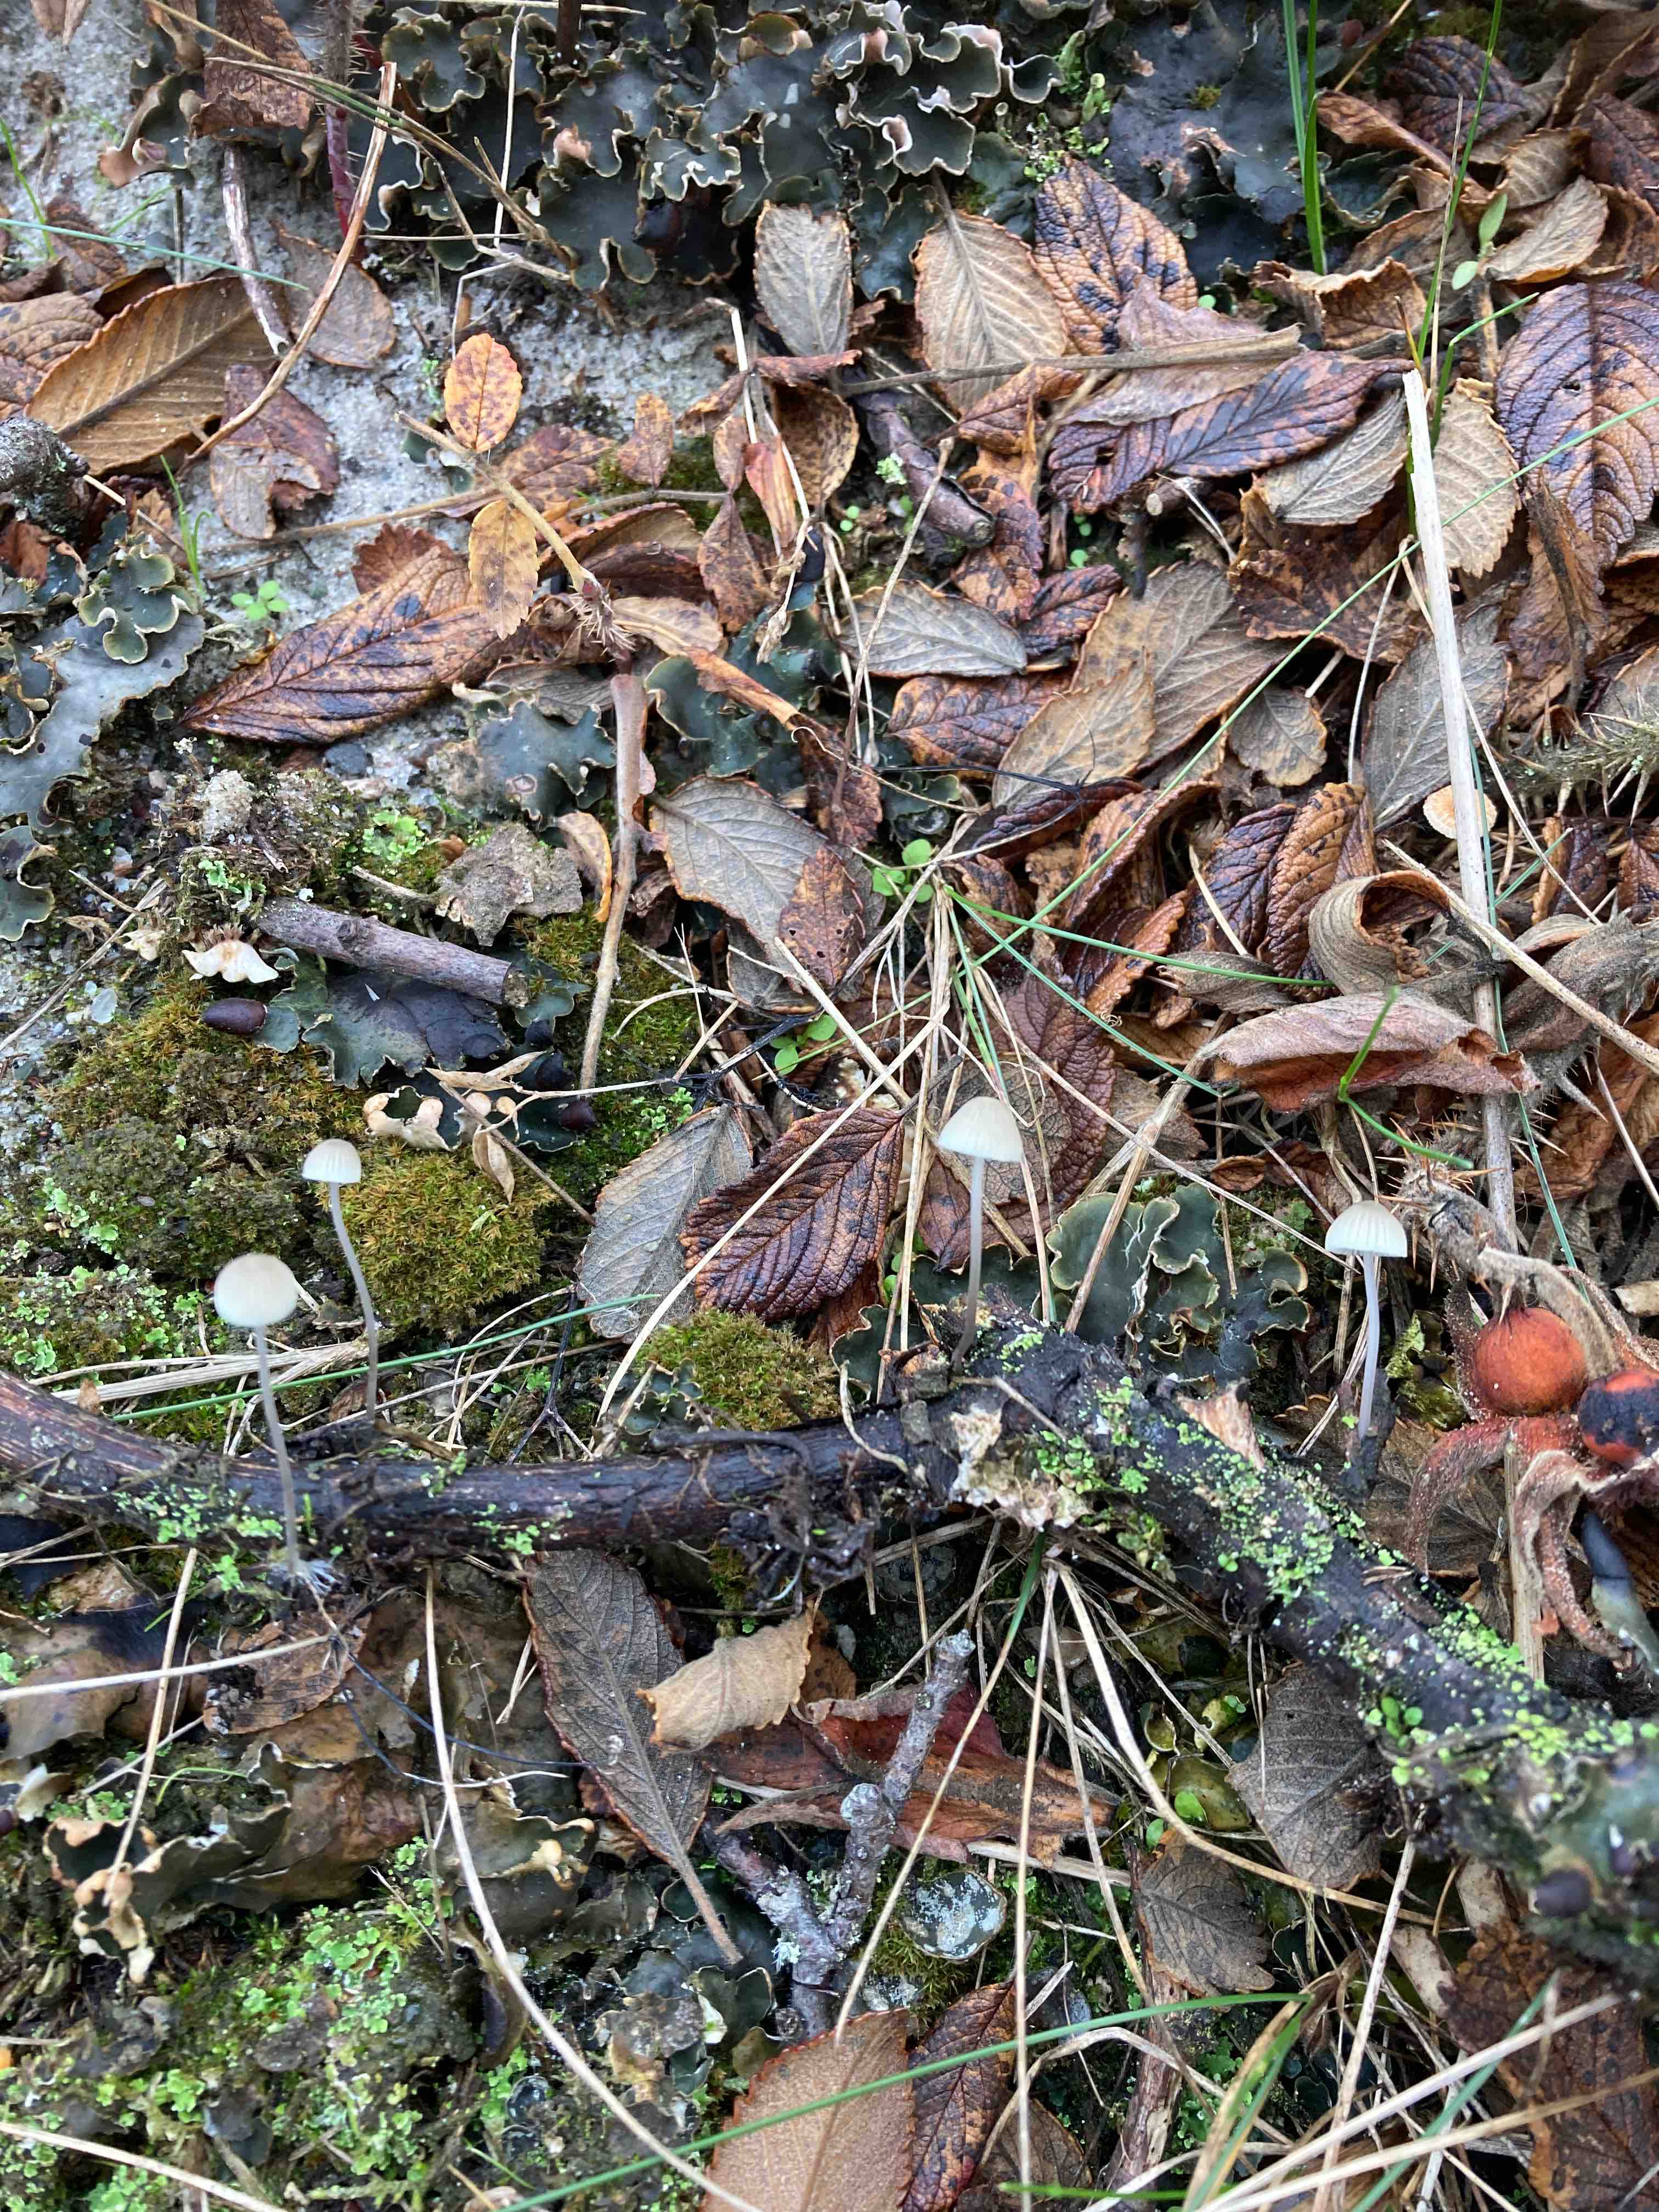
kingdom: Fungi
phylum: Basidiomycota
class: Agaricomycetes
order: Agaricales
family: Mycenaceae
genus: Mycena
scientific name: Mycena arcangeliana
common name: oliven-huesvamp
